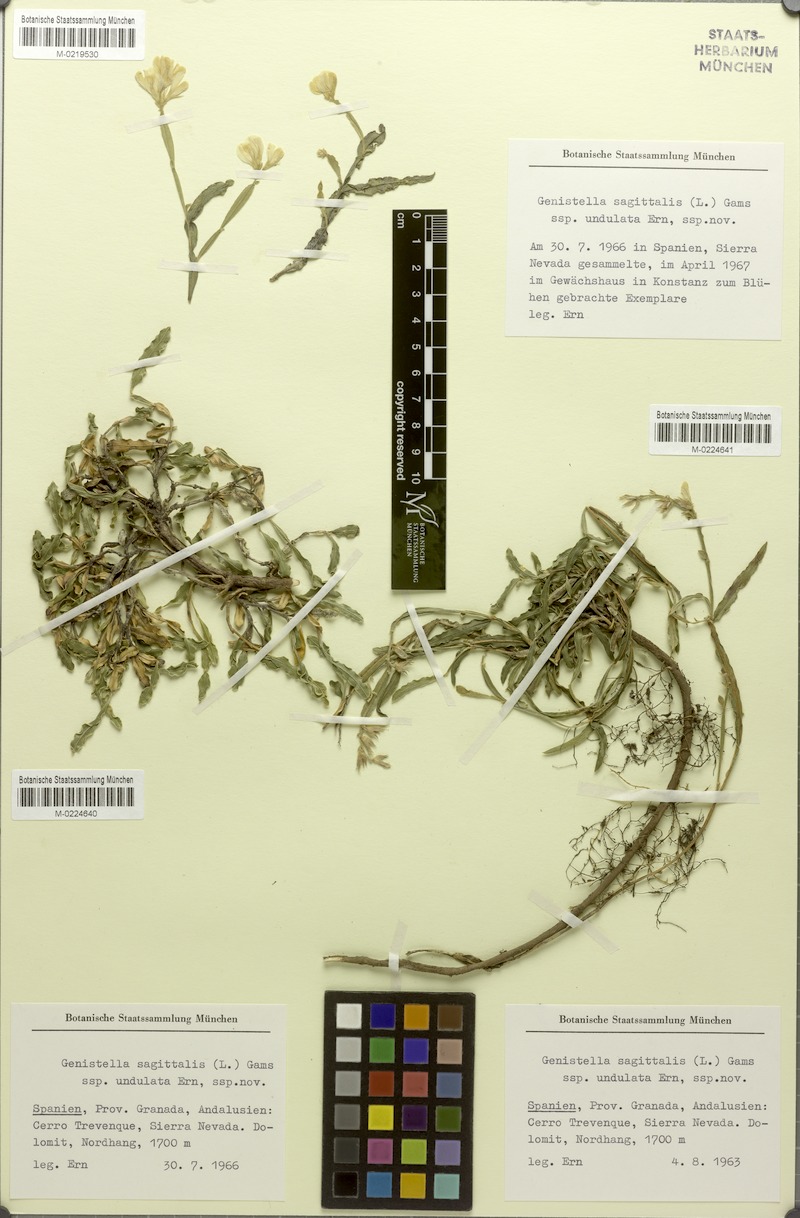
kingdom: Plantae
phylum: Tracheophyta
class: Magnoliopsida
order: Fabales
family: Fabaceae
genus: Genista
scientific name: Genista sagittalis
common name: Winged greenweed
